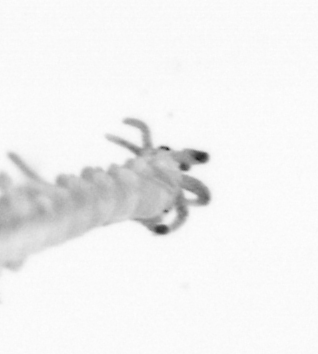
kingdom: Animalia
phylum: Annelida
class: Polychaeta
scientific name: Polychaeta
